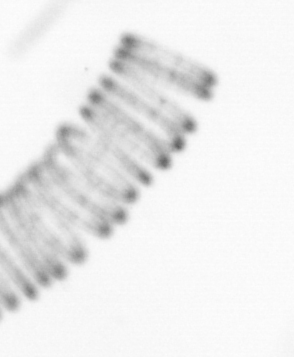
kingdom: Chromista
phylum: Ochrophyta
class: Bacillariophyceae
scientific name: Bacillariophyceae
